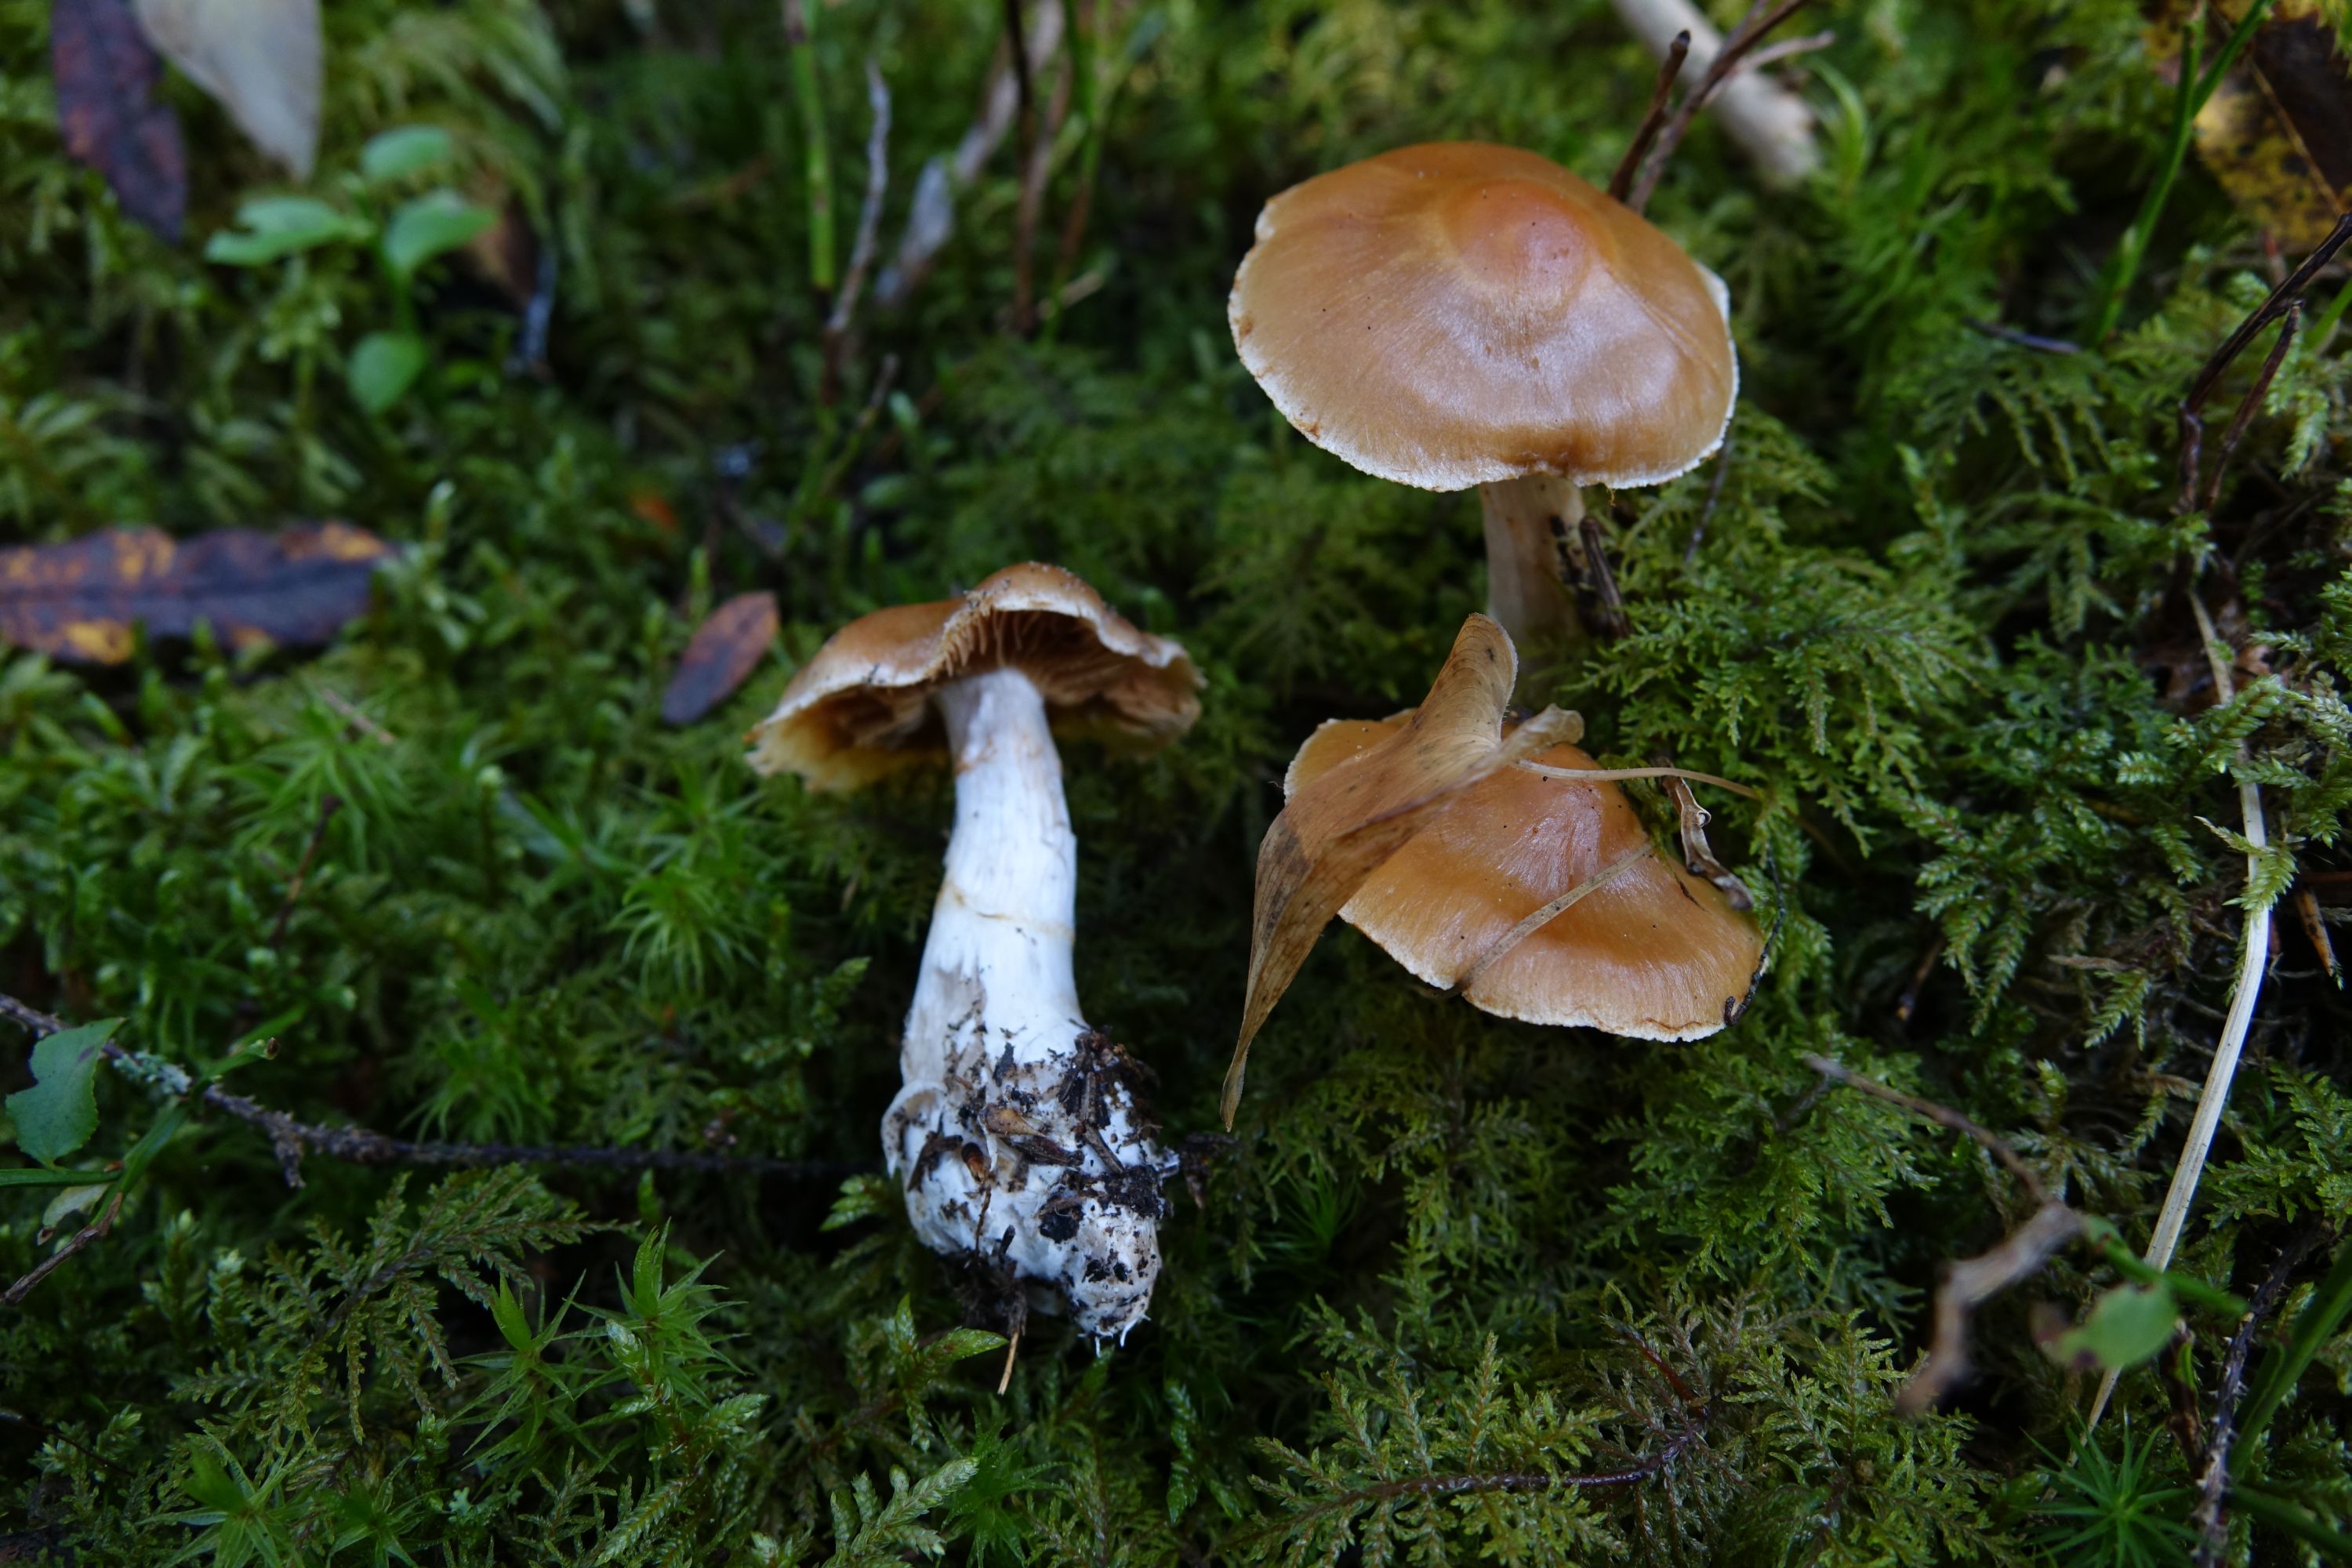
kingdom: Fungi
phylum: Basidiomycota
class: Agaricomycetes
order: Agaricales
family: Cortinariaceae
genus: Cortinarius
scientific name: Cortinarius armeniacus
